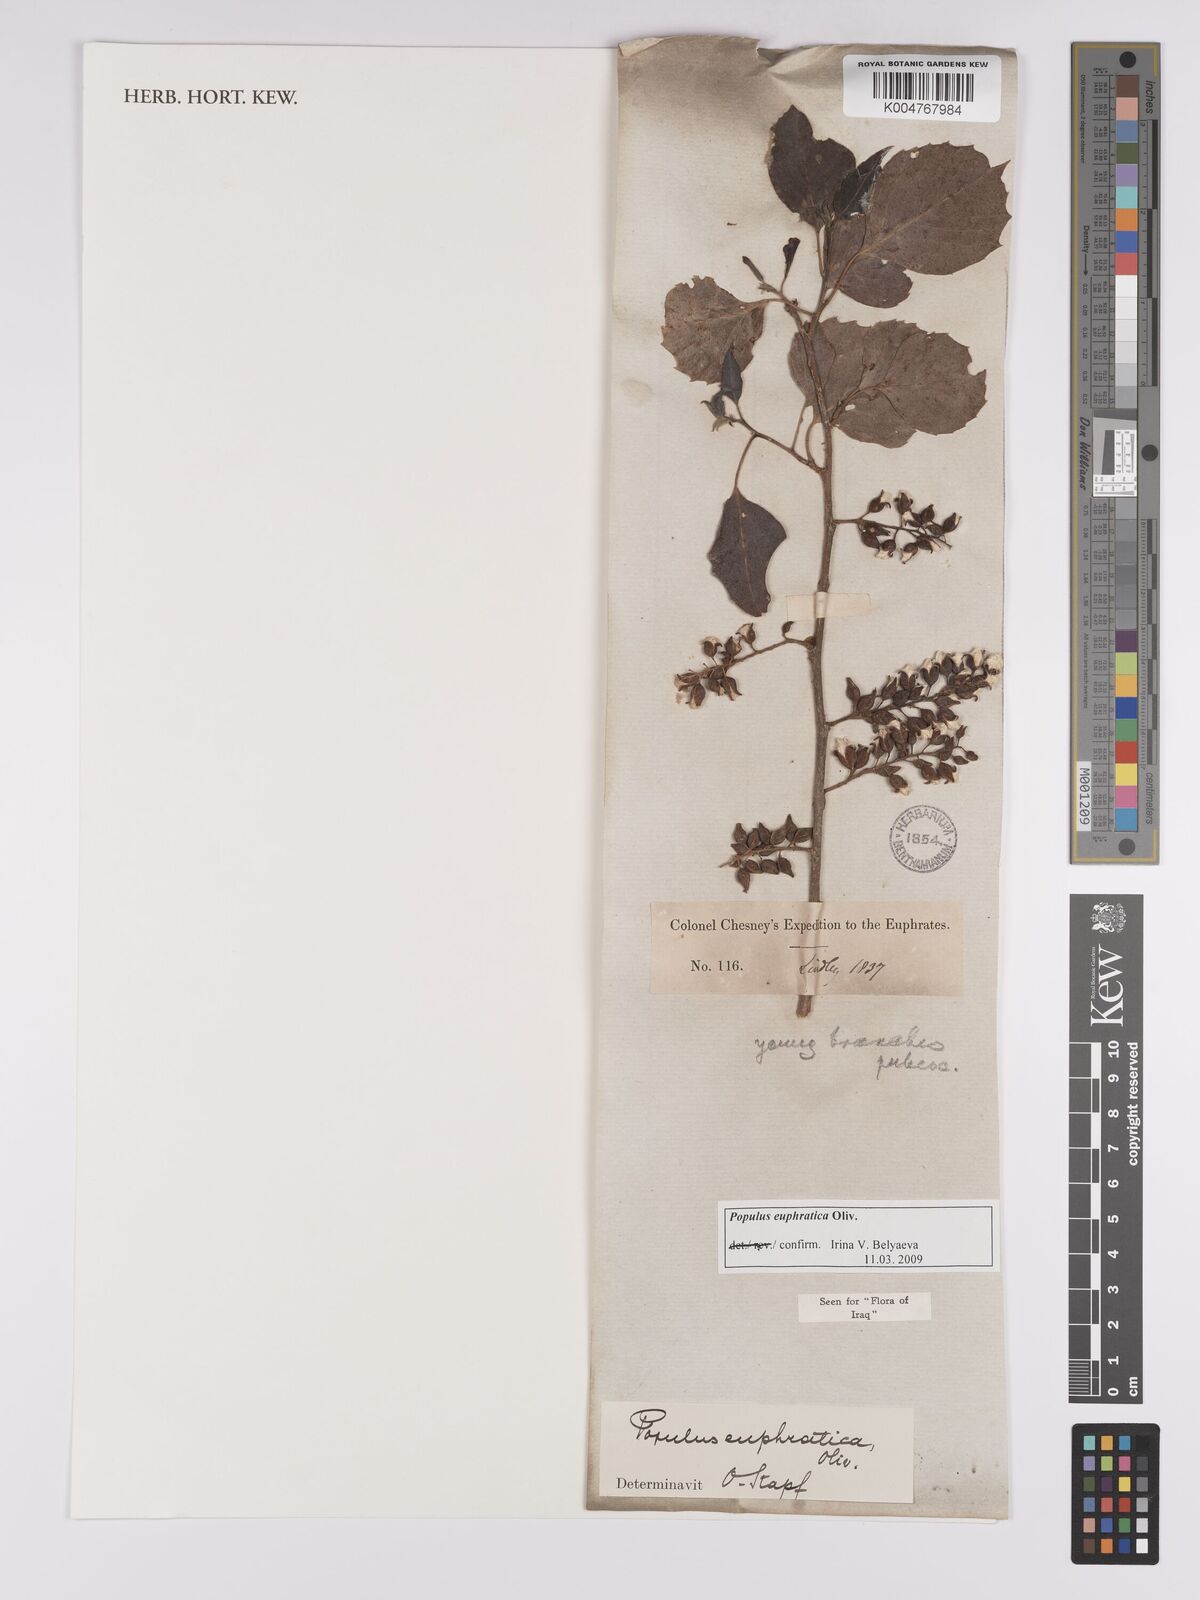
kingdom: Plantae
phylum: Tracheophyta
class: Magnoliopsida
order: Malpighiales
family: Salicaceae
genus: Populus
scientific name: Populus euphratica
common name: Euphrates poplar
